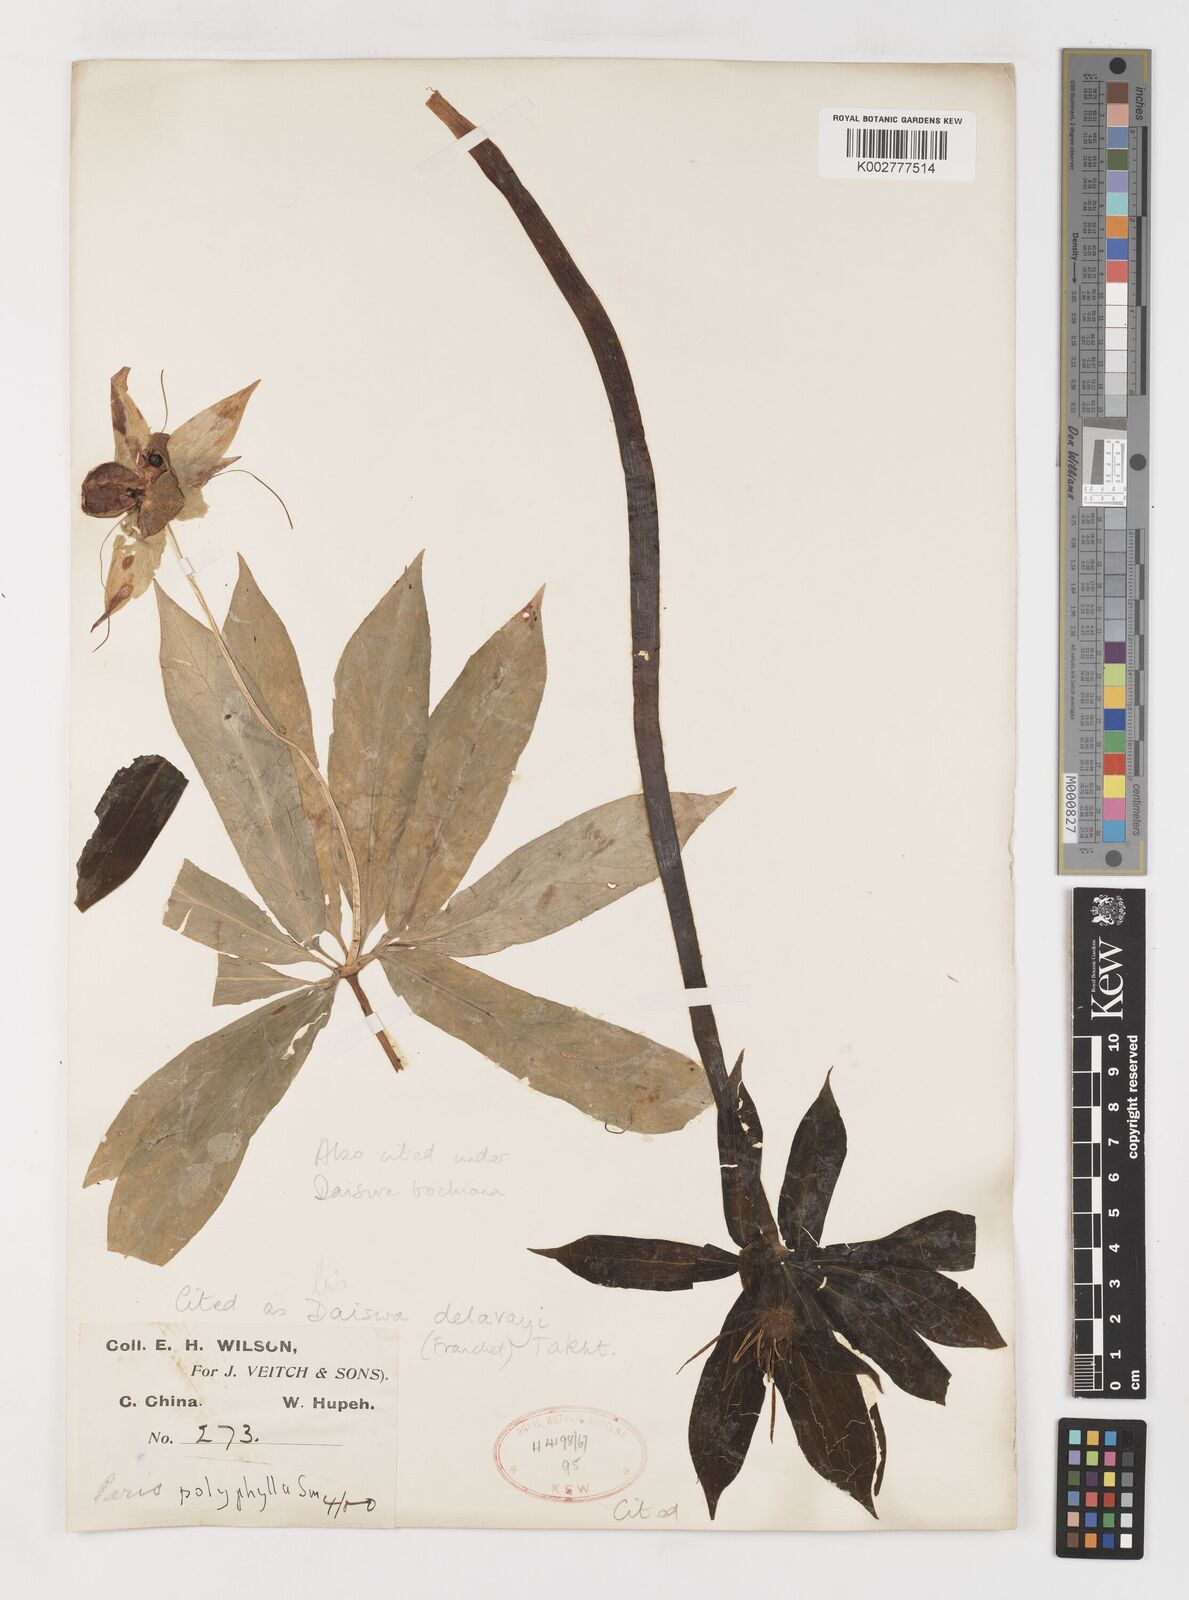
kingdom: Plantae
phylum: Tracheophyta
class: Liliopsida
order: Liliales
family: Melanthiaceae
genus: Paris
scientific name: Paris delavayi
